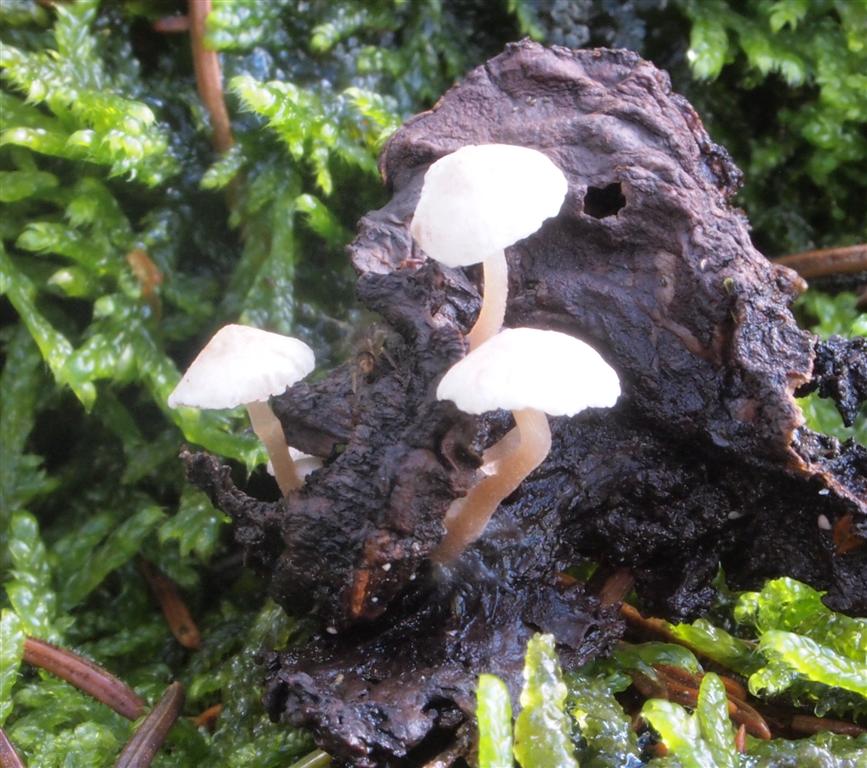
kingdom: Fungi
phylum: Basidiomycota
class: Agaricomycetes
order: Agaricales
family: Tricholomataceae
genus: Collybia
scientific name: Collybia cirrhata
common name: silke-lighat
